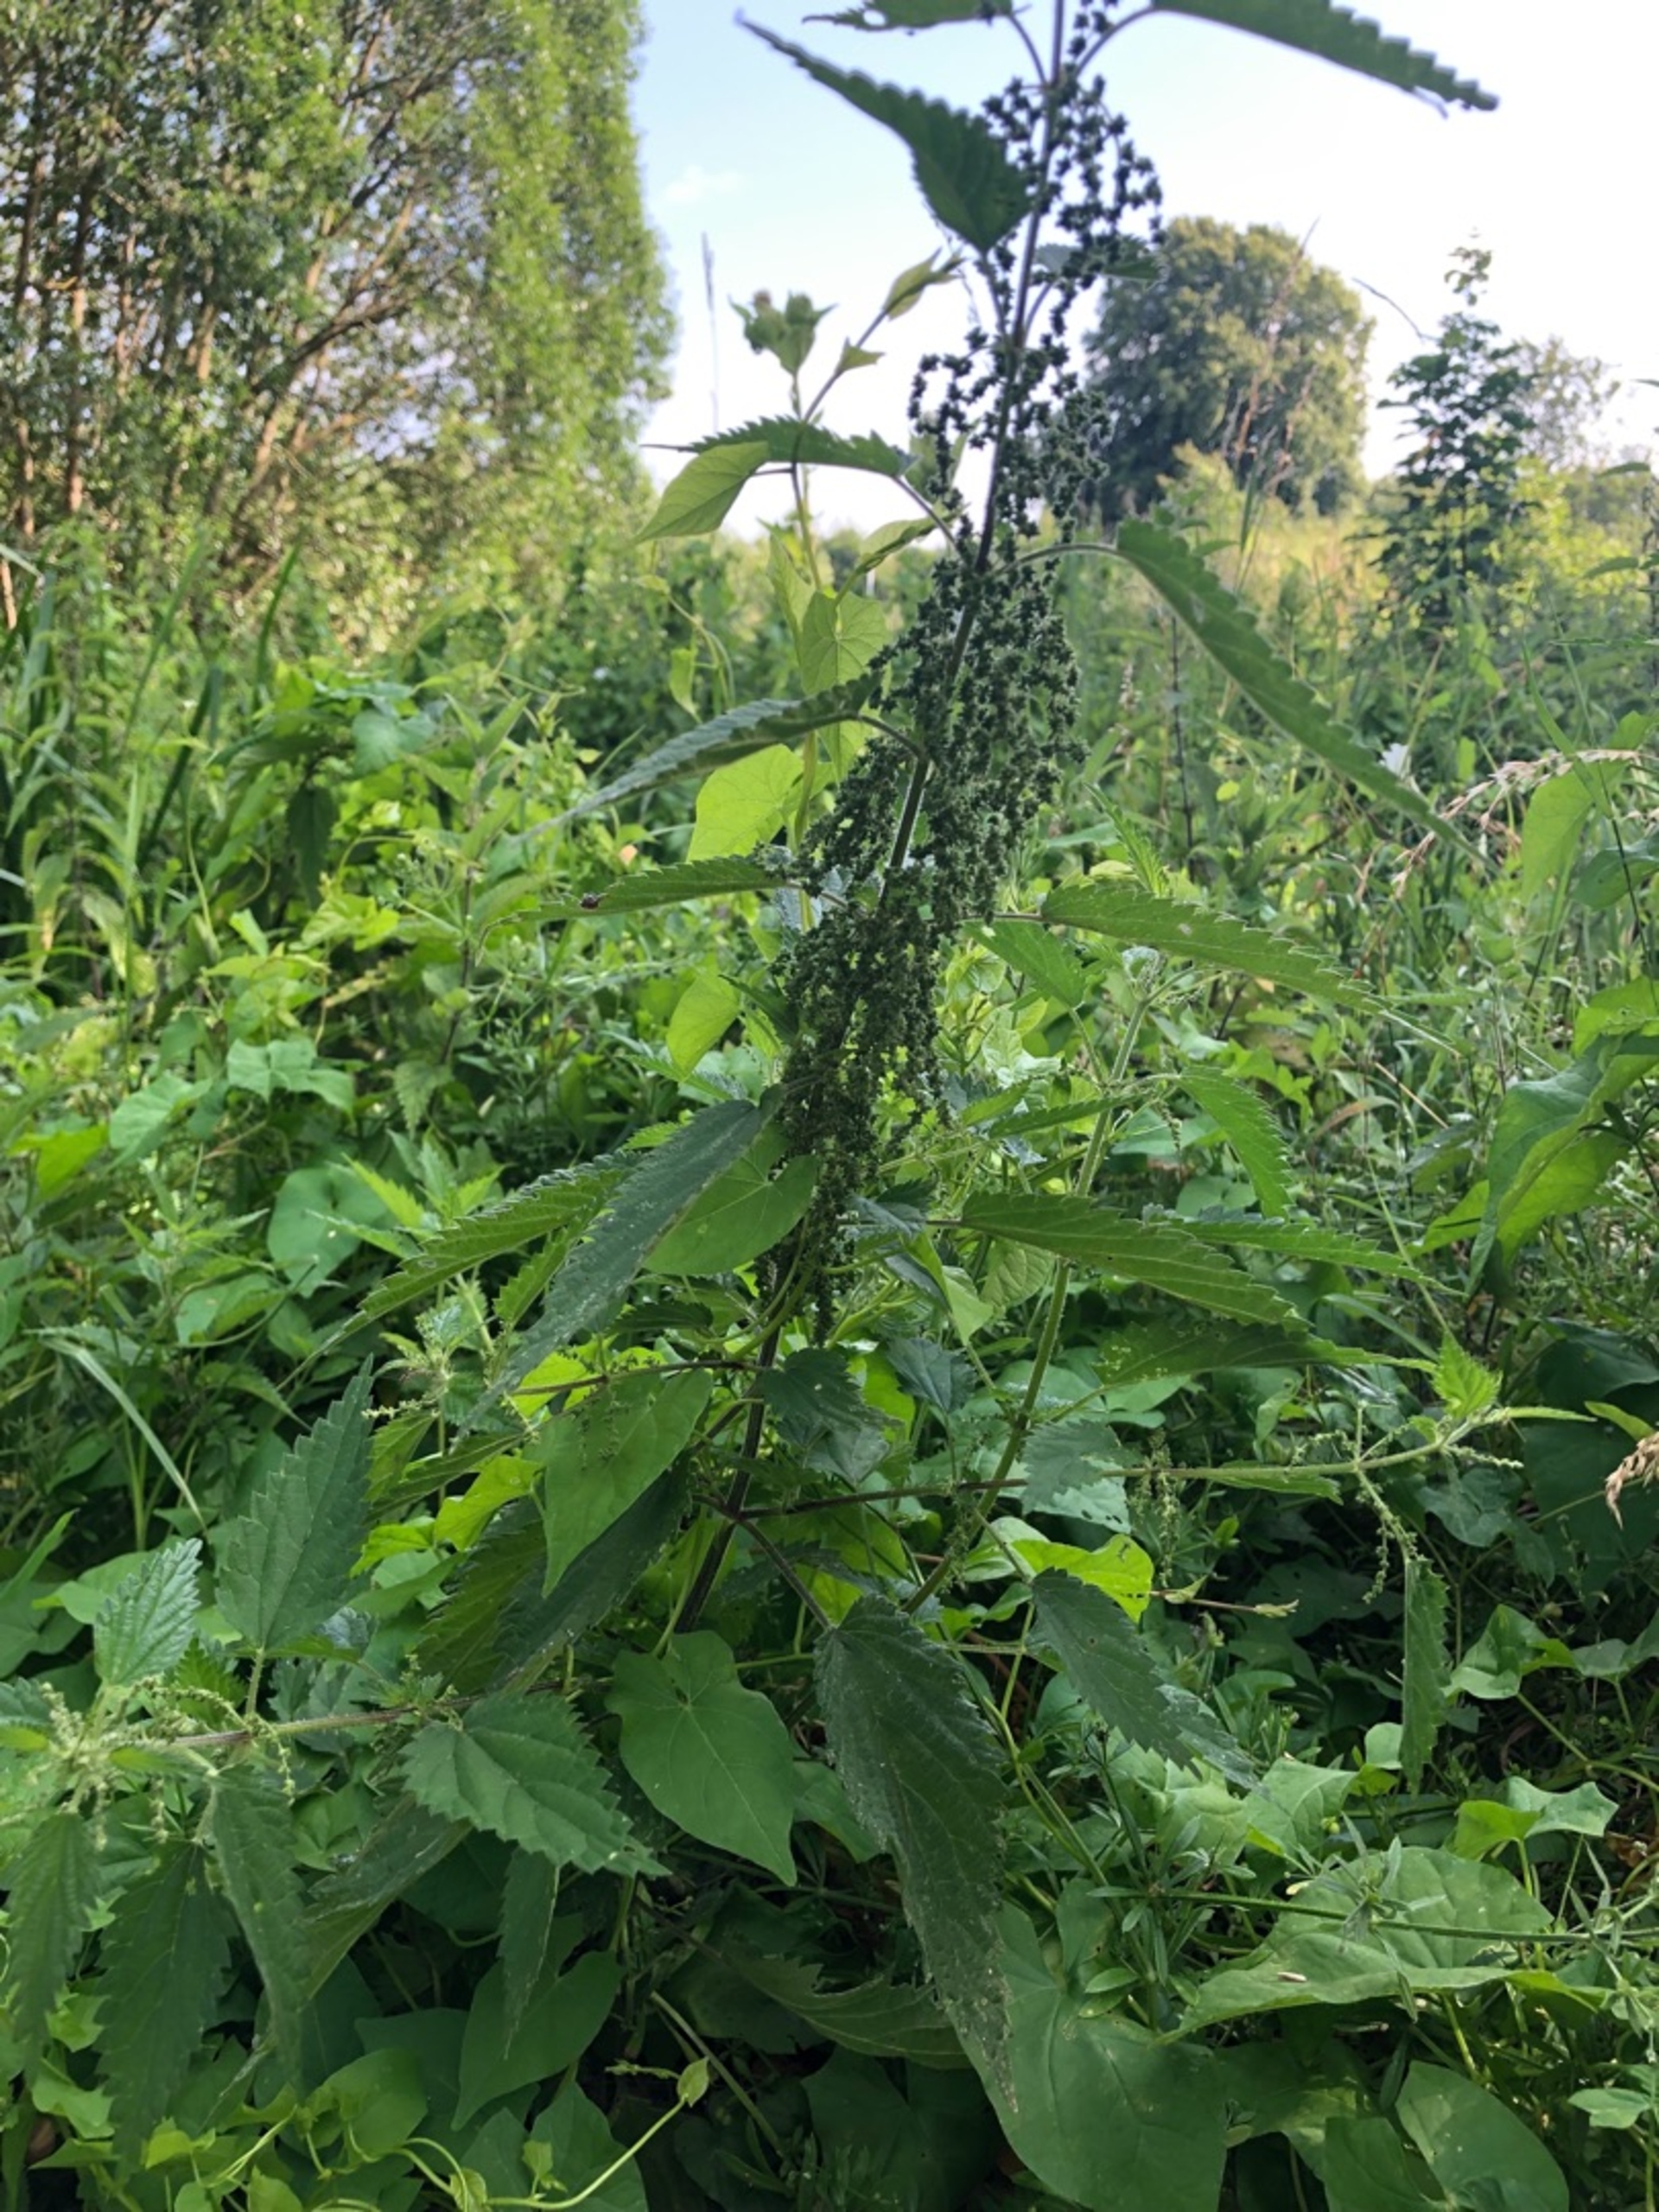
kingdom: Plantae
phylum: Tracheophyta
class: Magnoliopsida
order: Rosales
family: Urticaceae
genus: Urtica
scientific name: Urtica dioica
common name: Stor nælde
